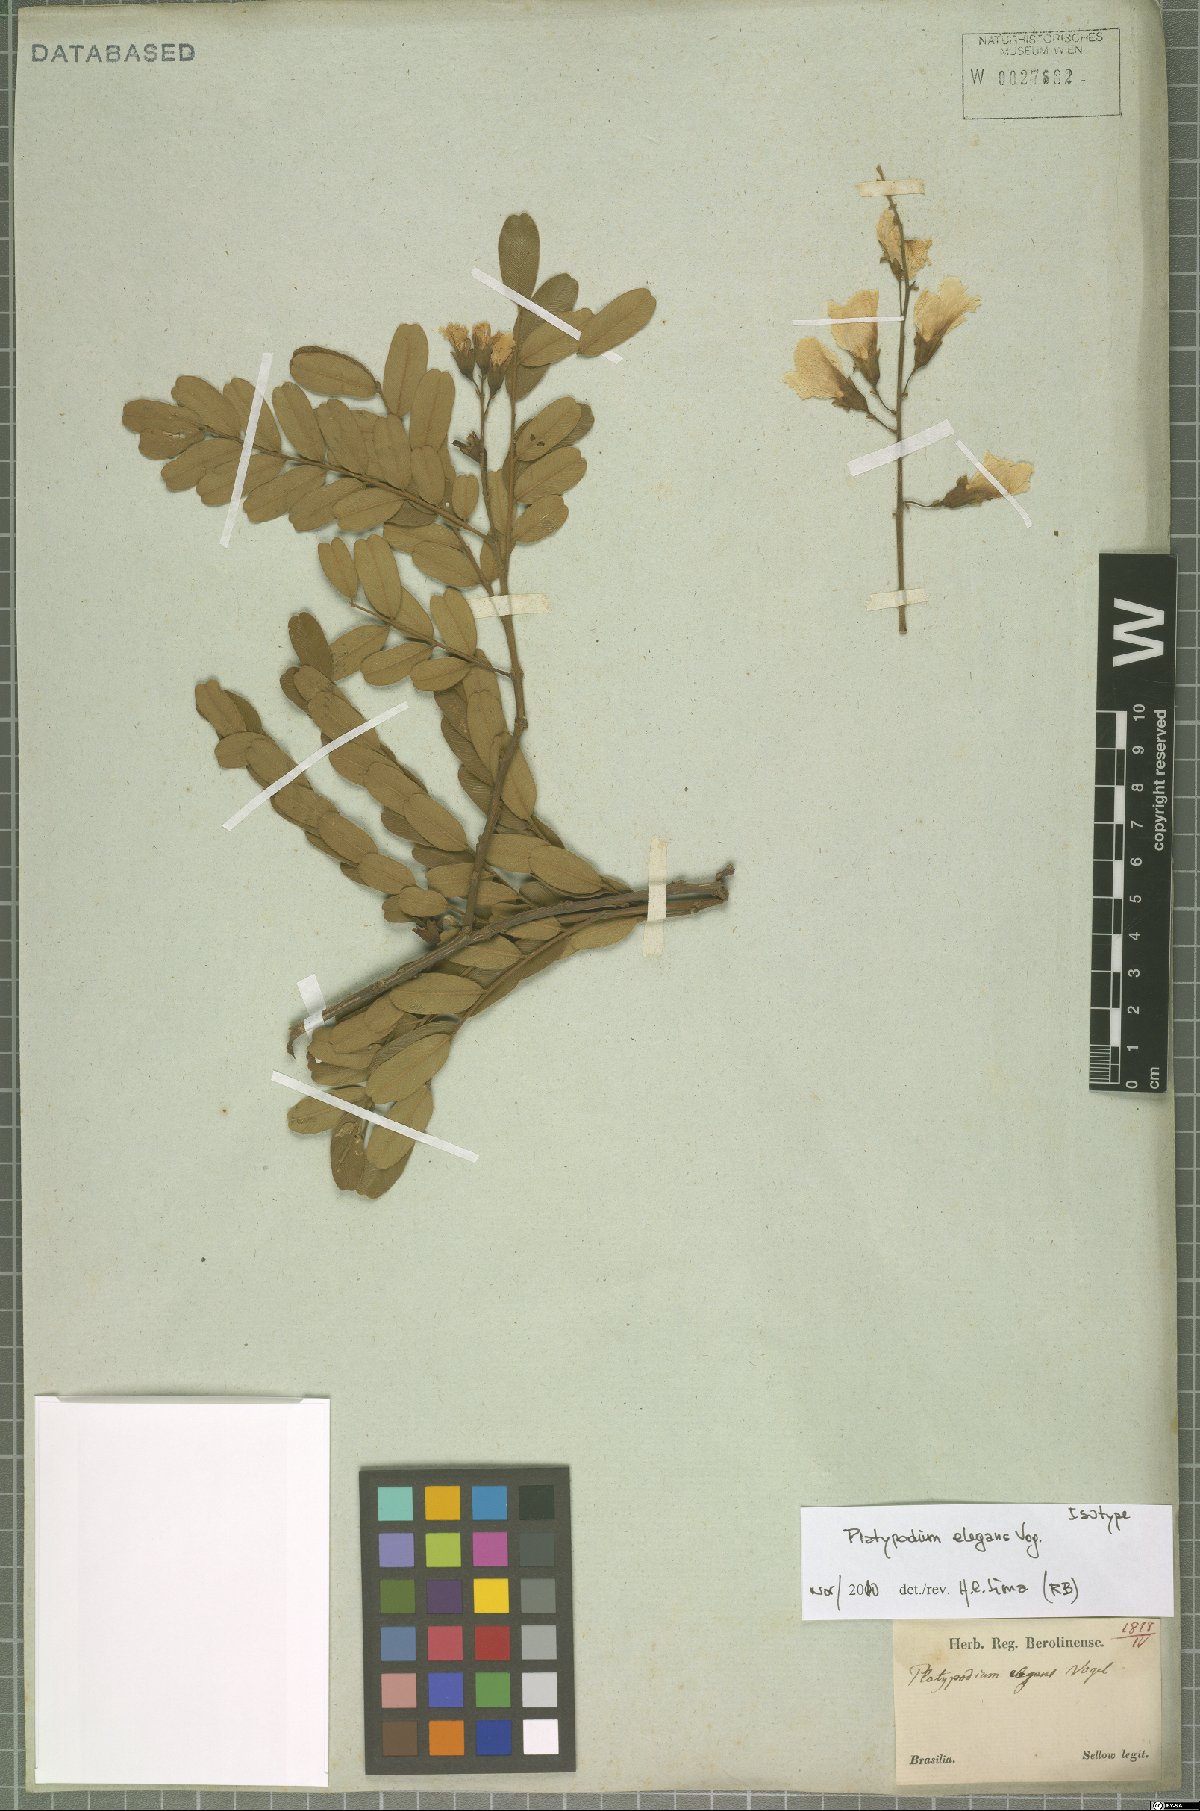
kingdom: Plantae
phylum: Tracheophyta
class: Magnoliopsida
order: Fabales
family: Fabaceae
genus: Platypodium
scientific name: Platypodium elegans
